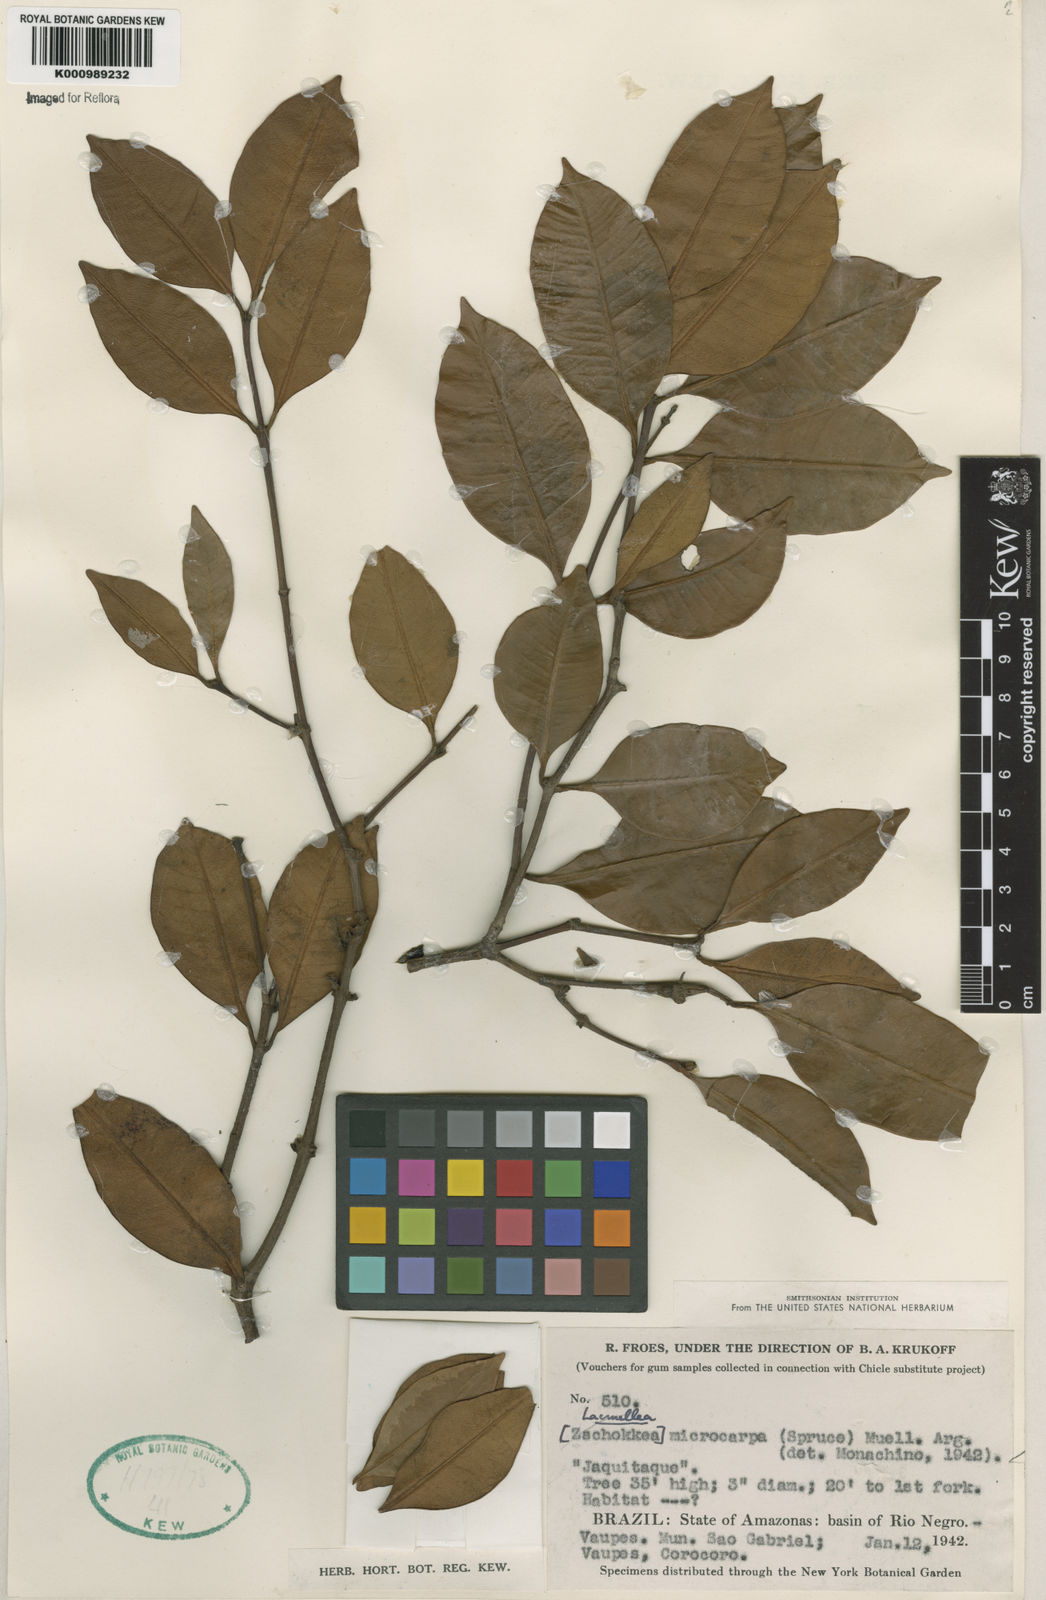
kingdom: Plantae
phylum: Tracheophyta
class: Magnoliopsida
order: Gentianales
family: Apocynaceae
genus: Lacmellea
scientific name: Lacmellea
